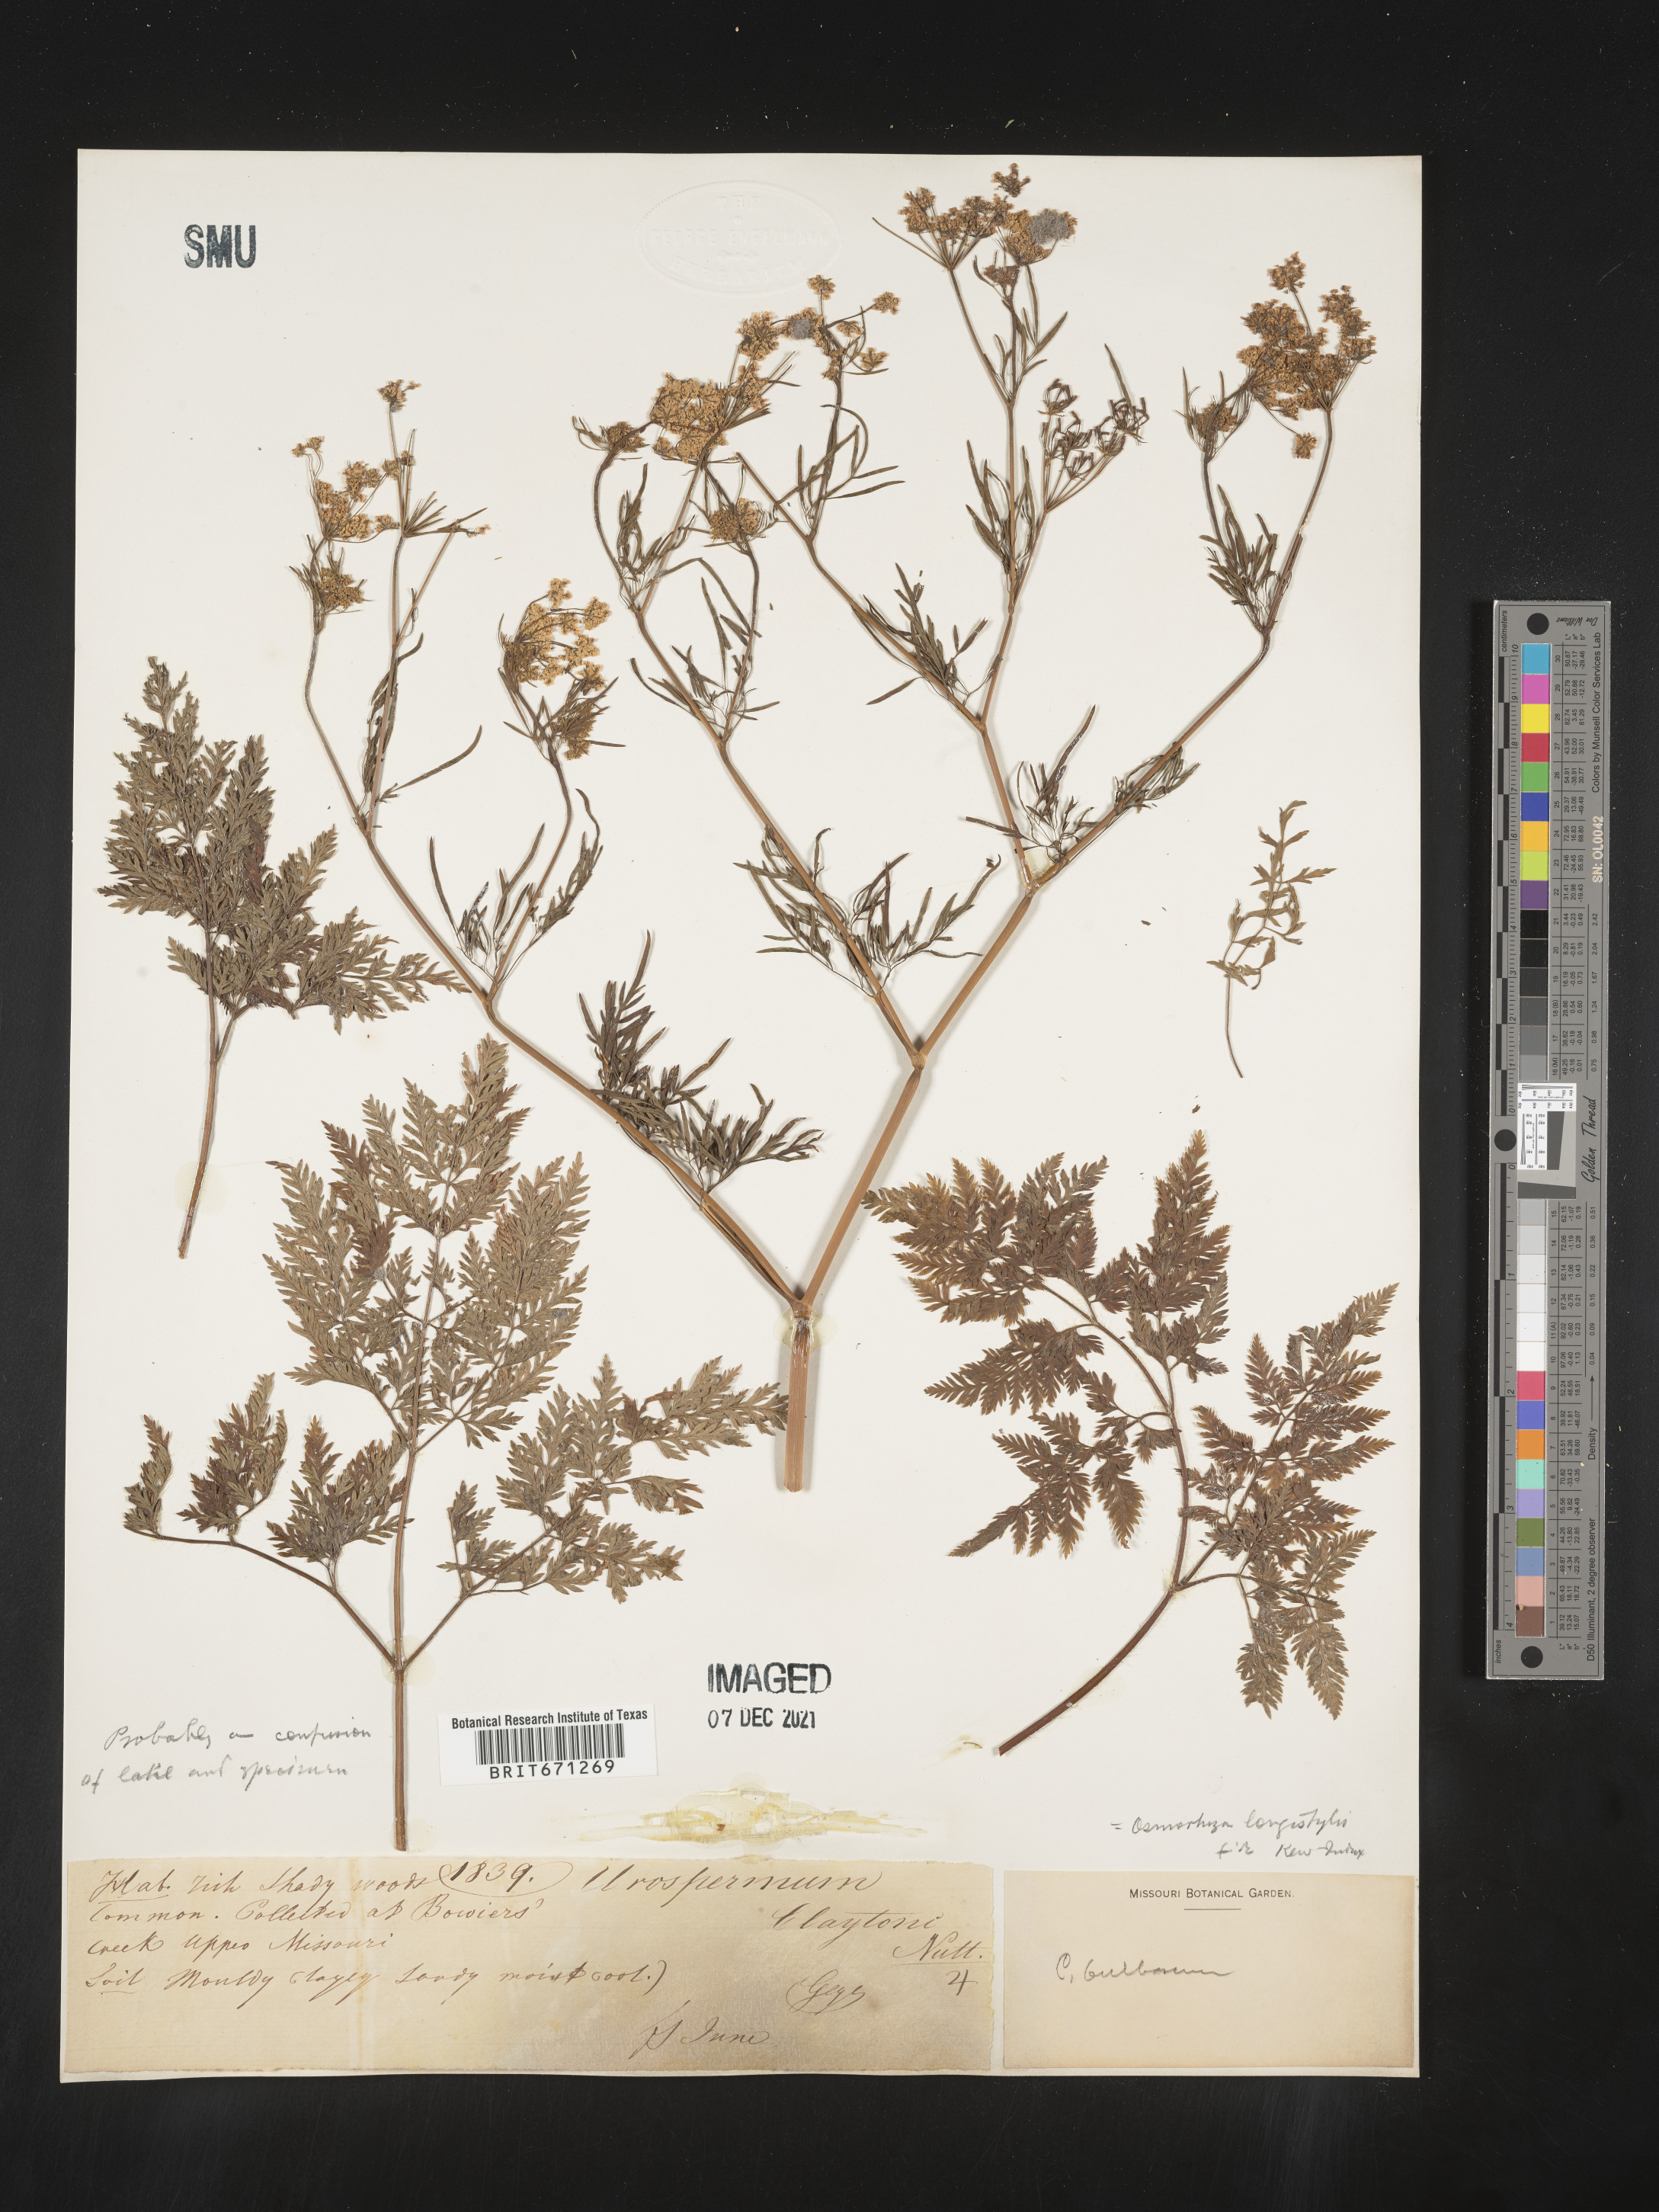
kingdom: Plantae
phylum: Tracheophyta
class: Magnoliopsida
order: Apiales
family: Apiaceae
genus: Osmorhiza
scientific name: Osmorhiza purpurea
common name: Purple sweet cicely
